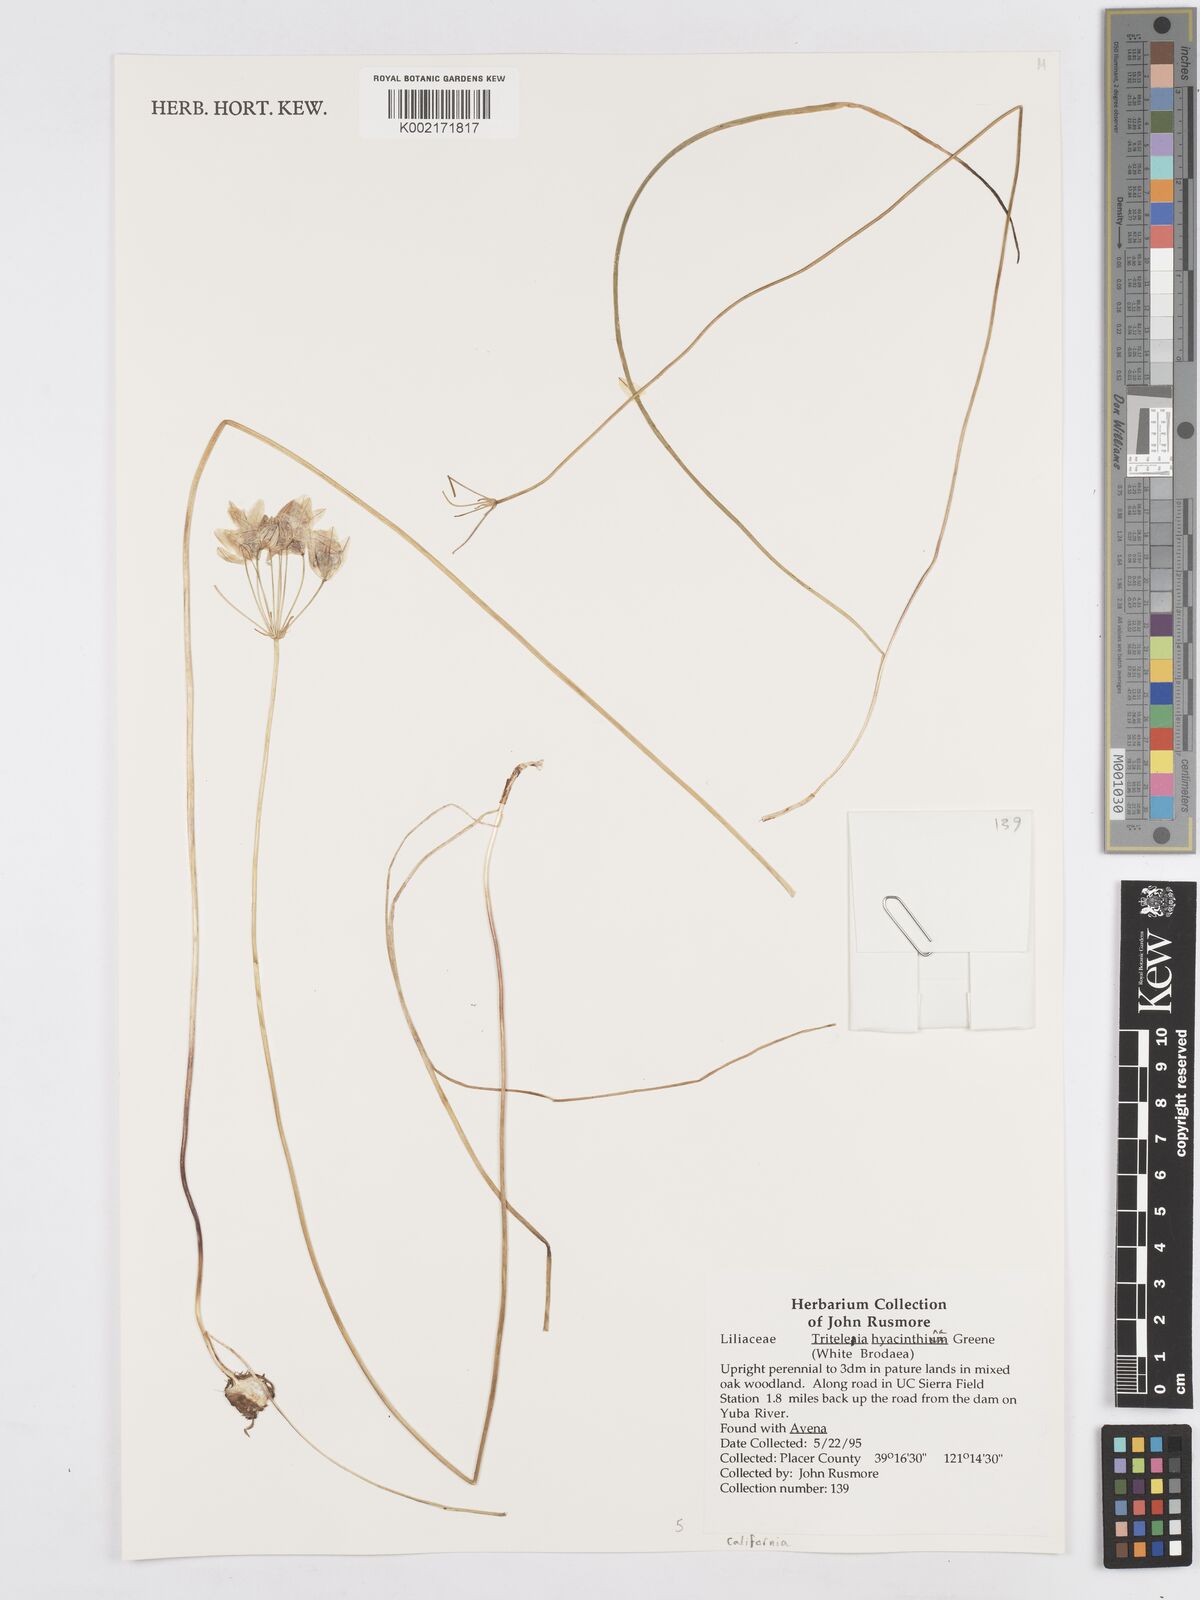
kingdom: Plantae
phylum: Tracheophyta
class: Liliopsida
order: Asparagales
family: Asparagaceae
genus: Triteleia
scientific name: Triteleia hyacinthina
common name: White brodiaea
